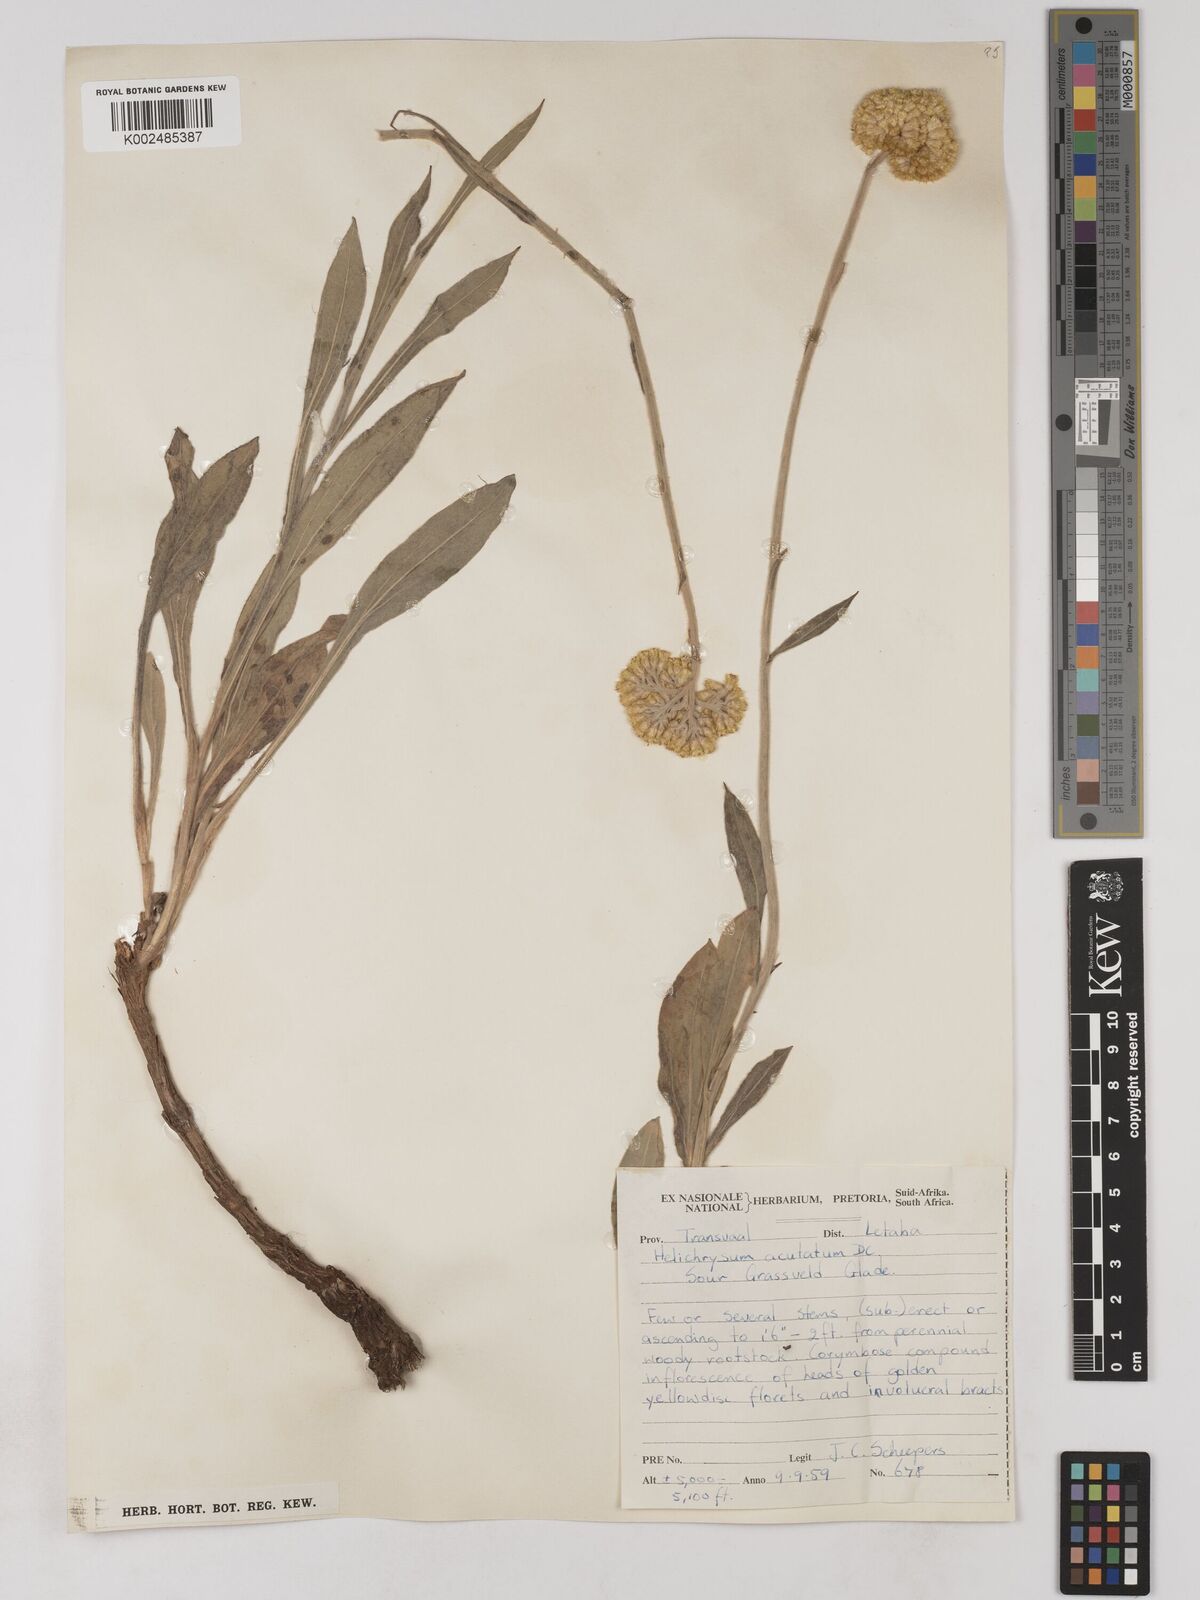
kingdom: Plantae
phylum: Tracheophyta
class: Magnoliopsida
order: Asterales
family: Asteraceae
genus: Helichrysum
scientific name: Helichrysum acutatum
